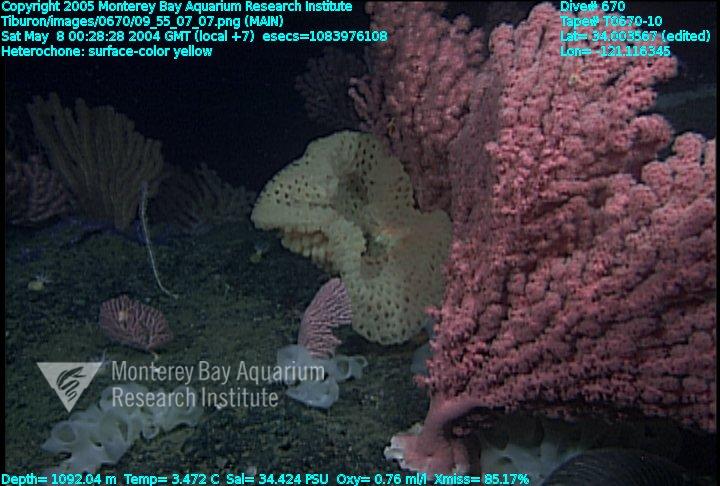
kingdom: Animalia
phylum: Porifera
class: Hexactinellida
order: Sceptrulophora
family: Aphrocallistidae
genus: Heterochone
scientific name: Heterochone
